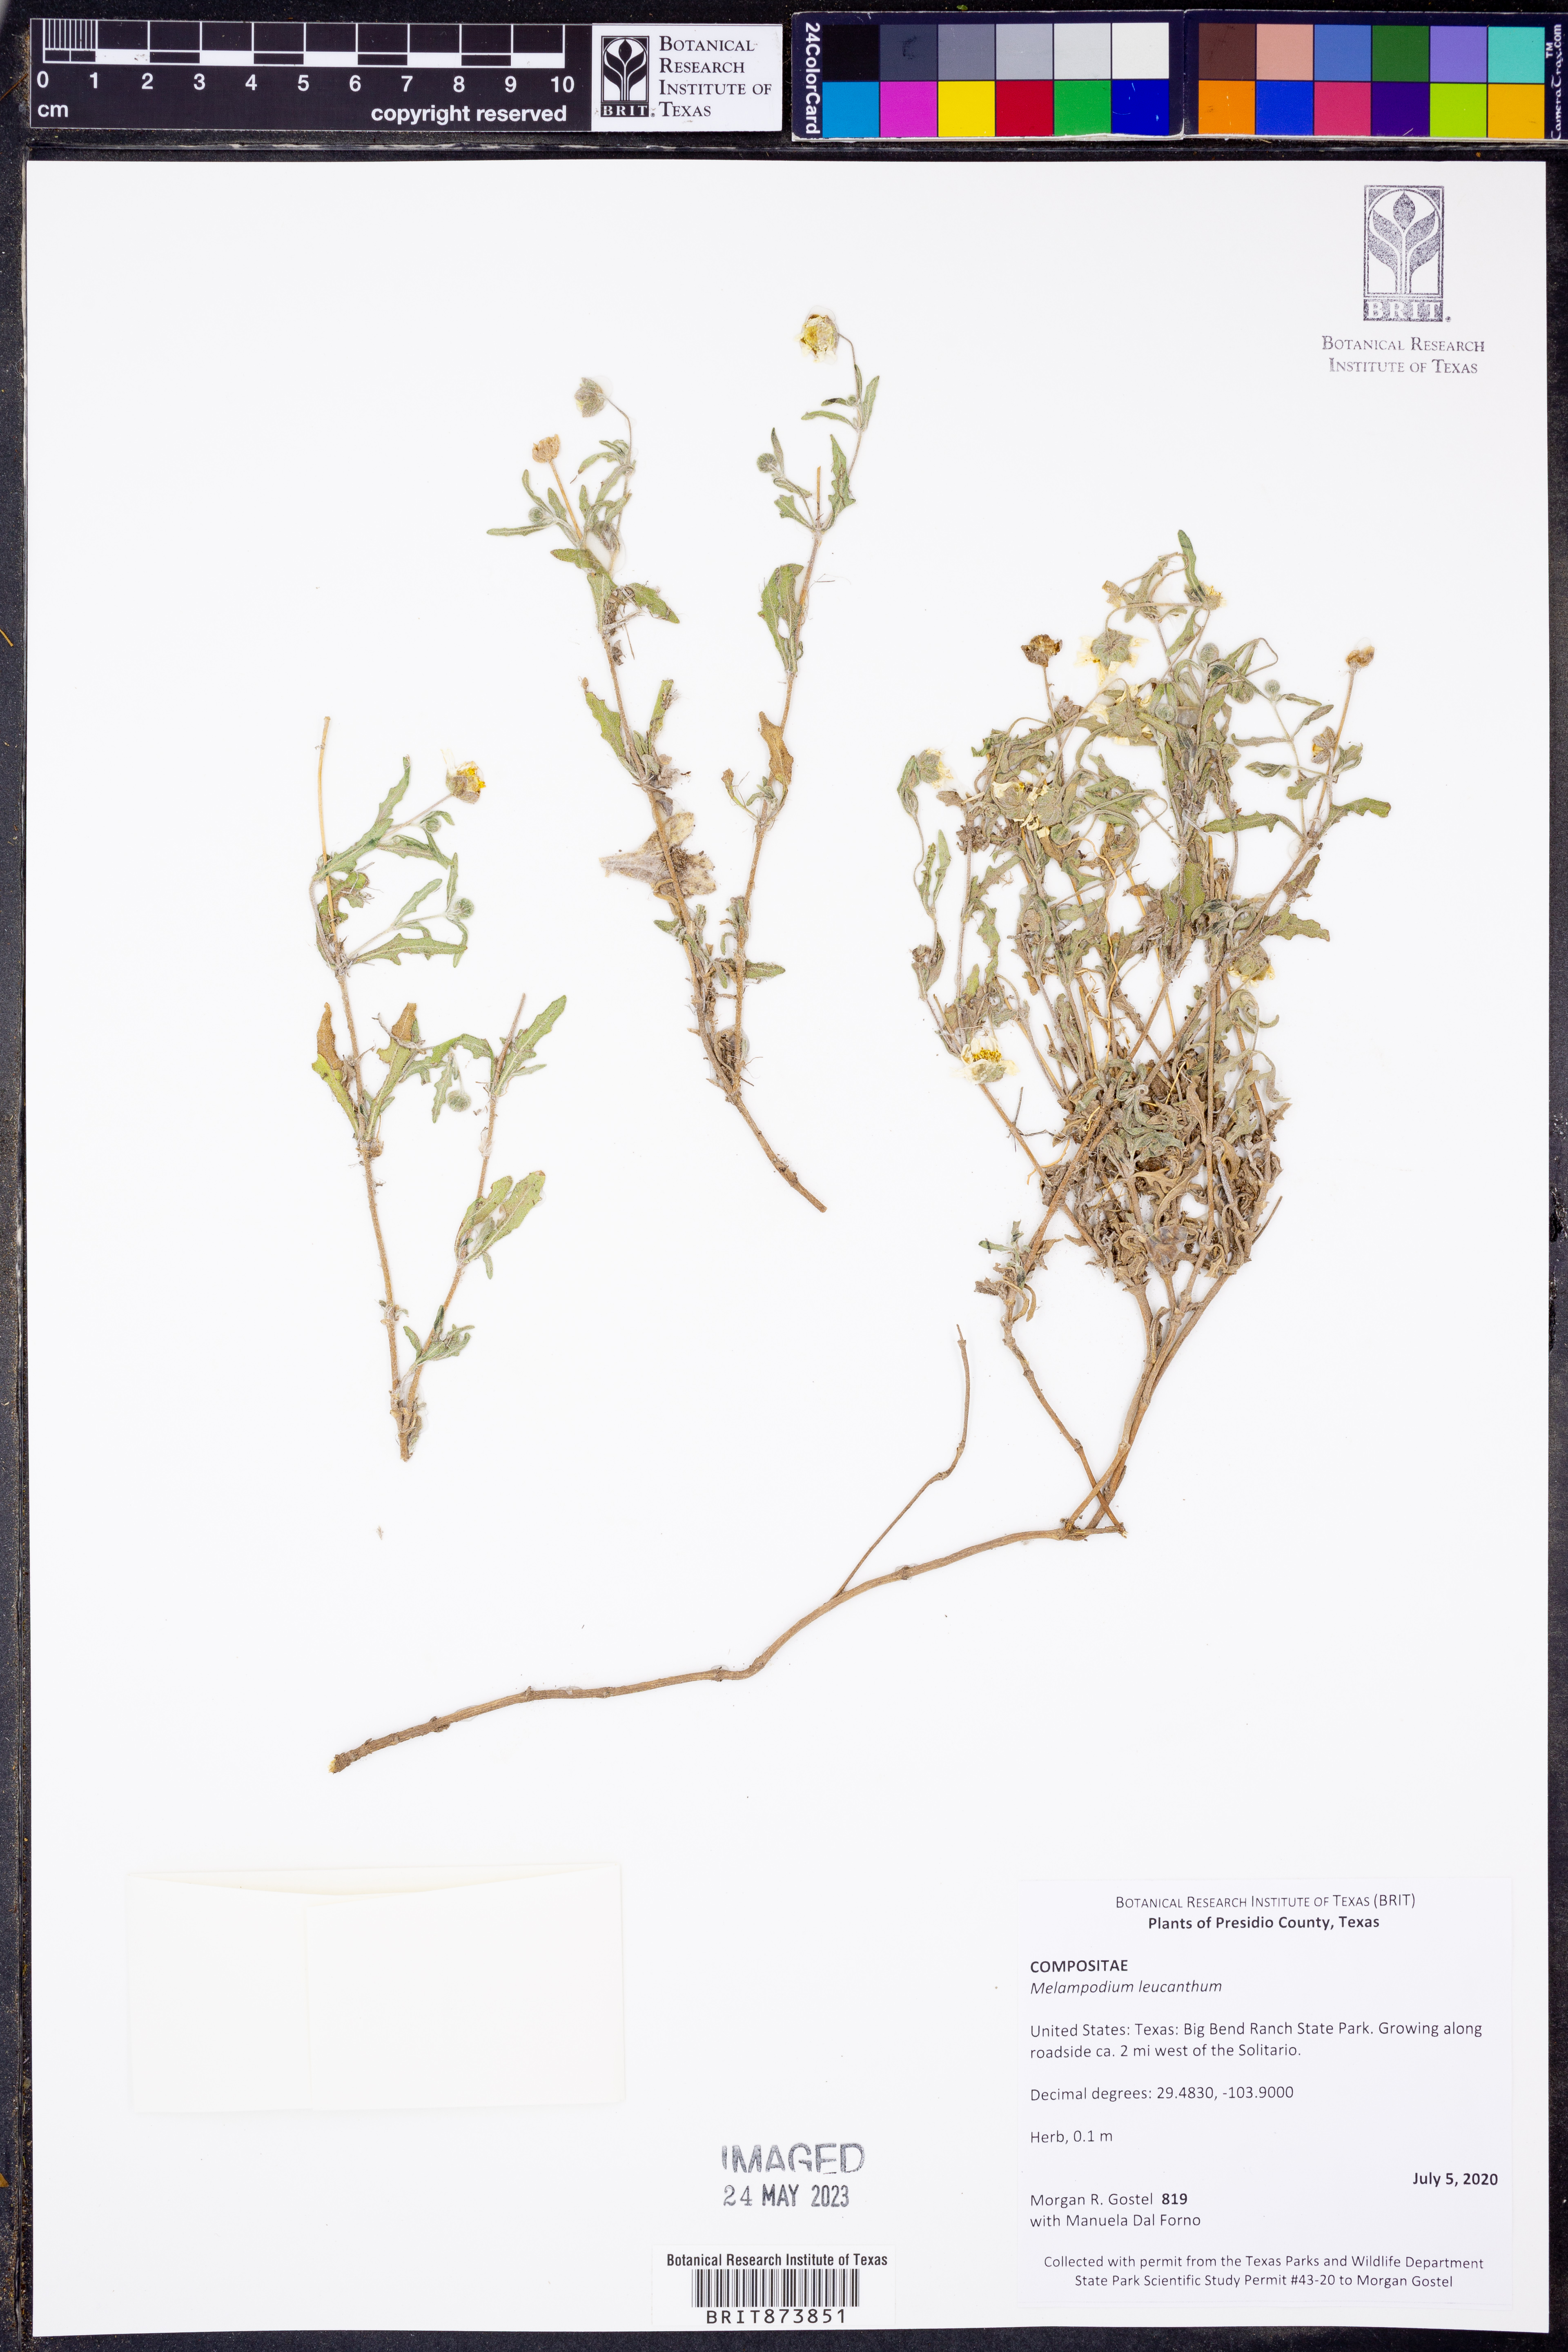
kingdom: Plantae
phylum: Tracheophyta
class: Magnoliopsida
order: Asterales
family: Asteraceae
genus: Melampodium
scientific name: Melampodium leucanthum
